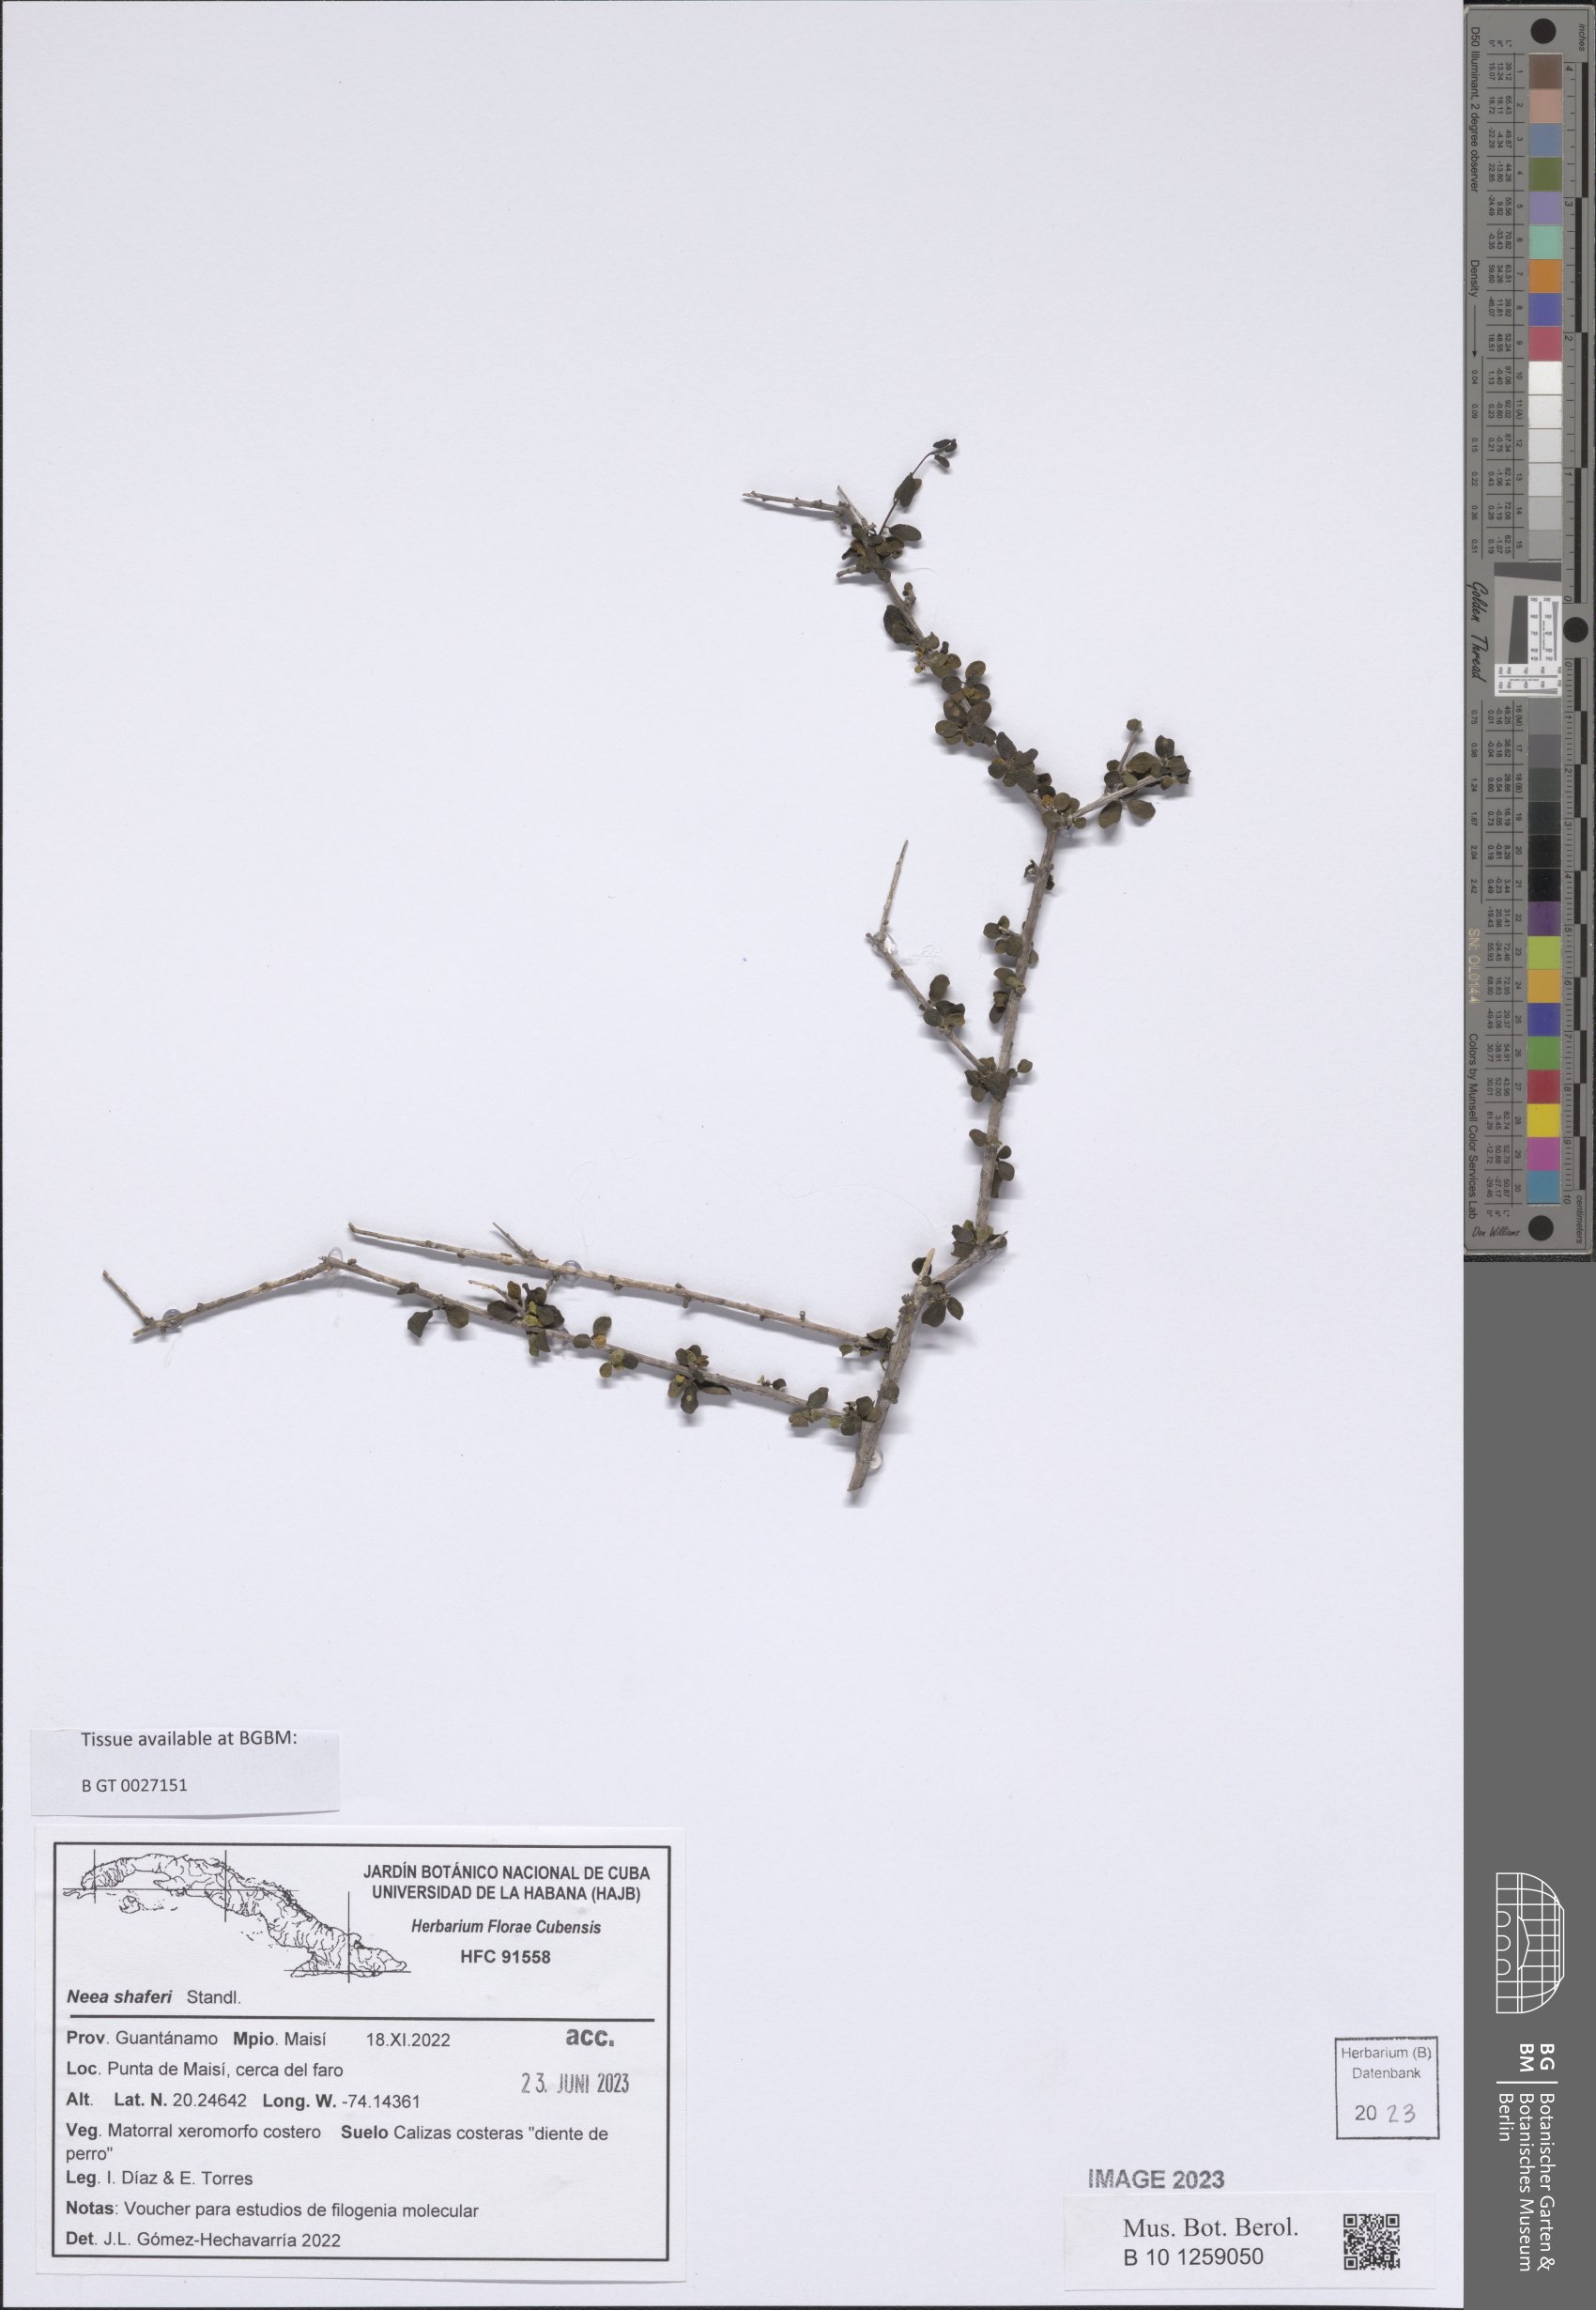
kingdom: Plantae
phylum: Tracheophyta
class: Magnoliopsida
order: Caryophyllales
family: Nyctaginaceae
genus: Neea
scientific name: Neea shaferi
